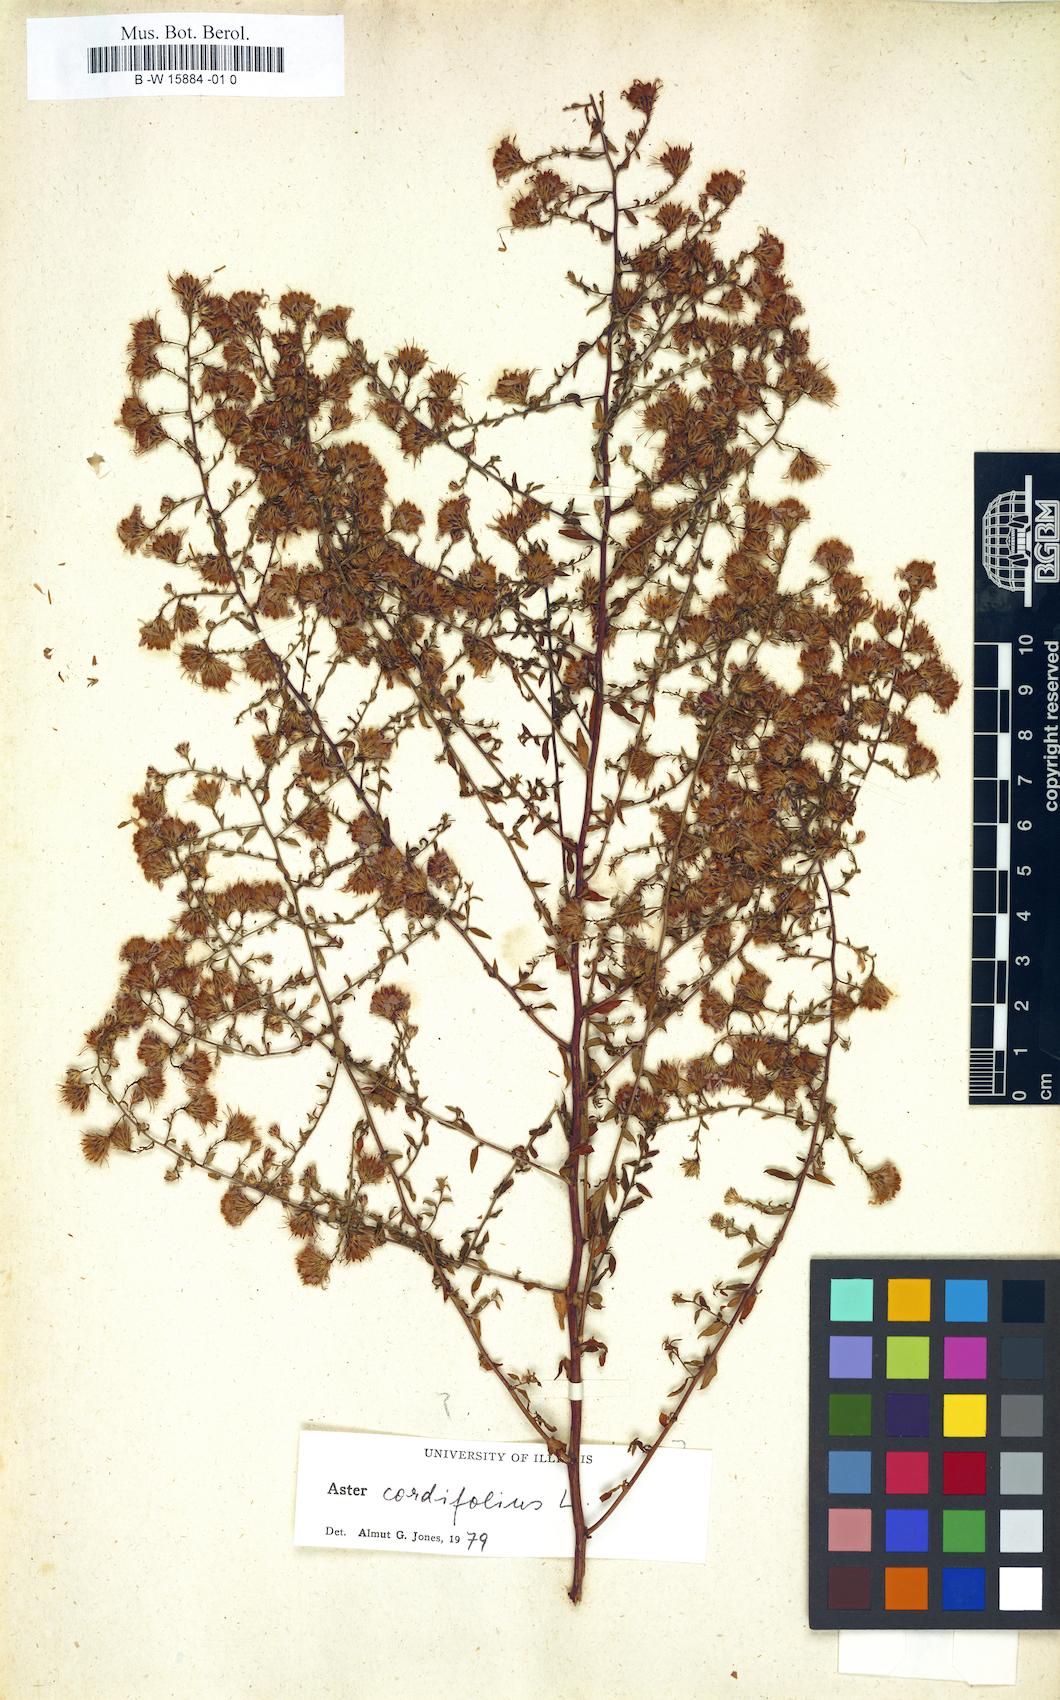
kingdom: Plantae
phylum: Tracheophyta
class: Magnoliopsida
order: Asterales
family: Asteraceae
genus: Isocoma
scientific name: Isocoma pluriflora
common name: Southern jimmyweed
